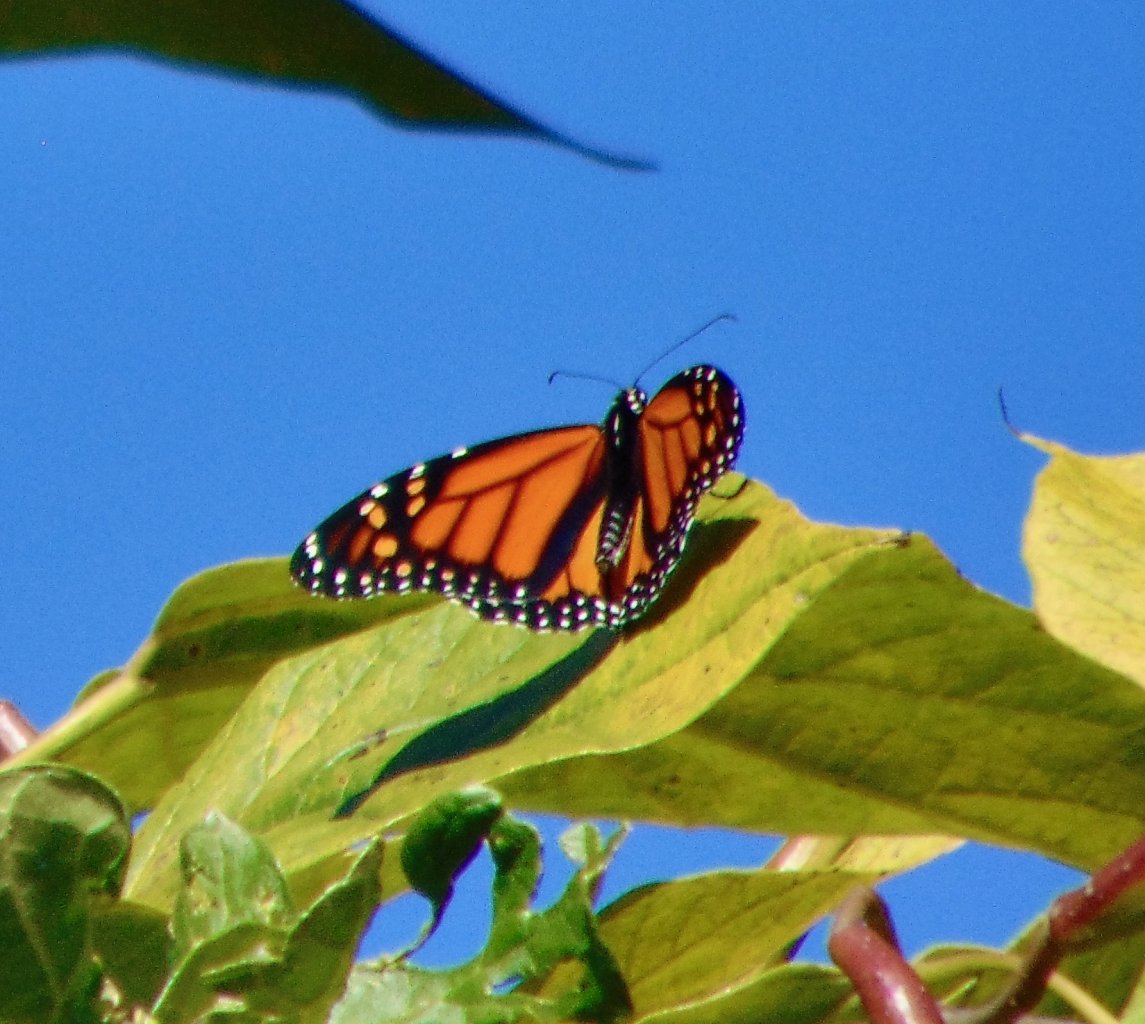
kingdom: Animalia
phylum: Arthropoda
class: Insecta
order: Lepidoptera
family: Nymphalidae
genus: Danaus
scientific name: Danaus plexippus
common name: Monarch
